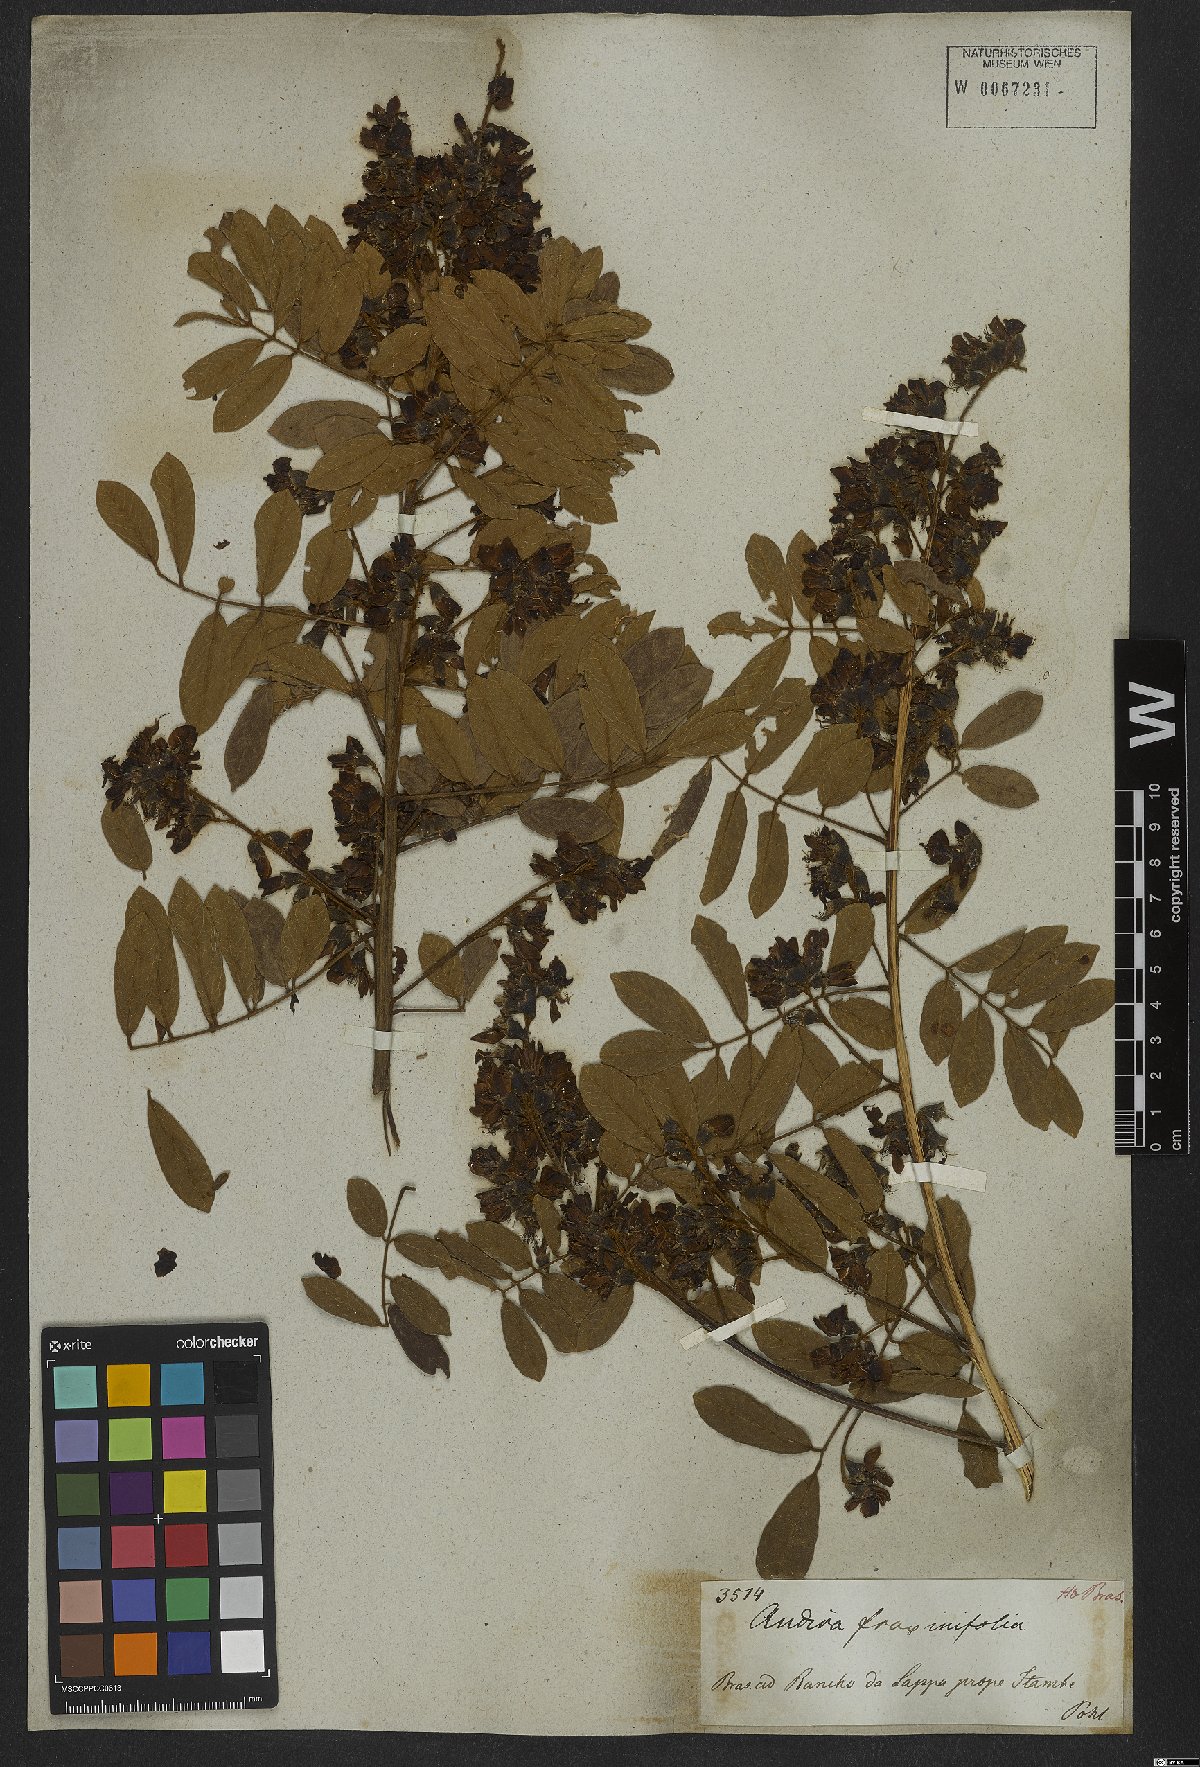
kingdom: Plantae
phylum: Tracheophyta
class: Magnoliopsida
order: Fabales
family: Fabaceae
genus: Andira
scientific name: Andira fraxinifolia
